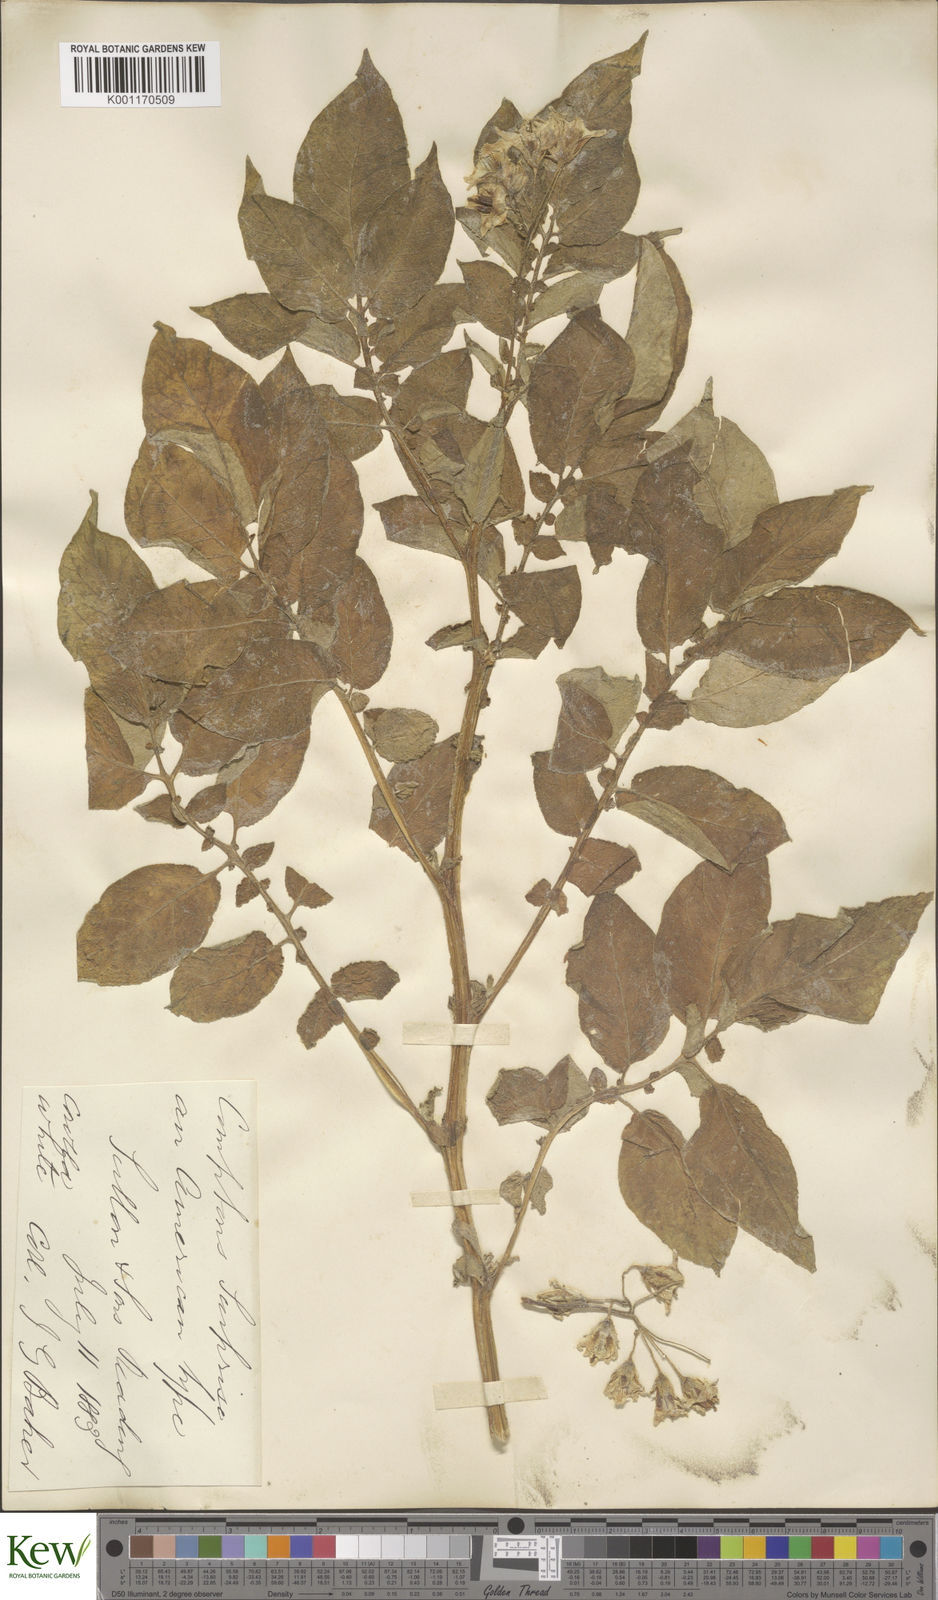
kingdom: Plantae
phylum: Tracheophyta
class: Magnoliopsida
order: Solanales
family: Solanaceae
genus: Solanum
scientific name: Solanum tuberosum
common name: Potato
